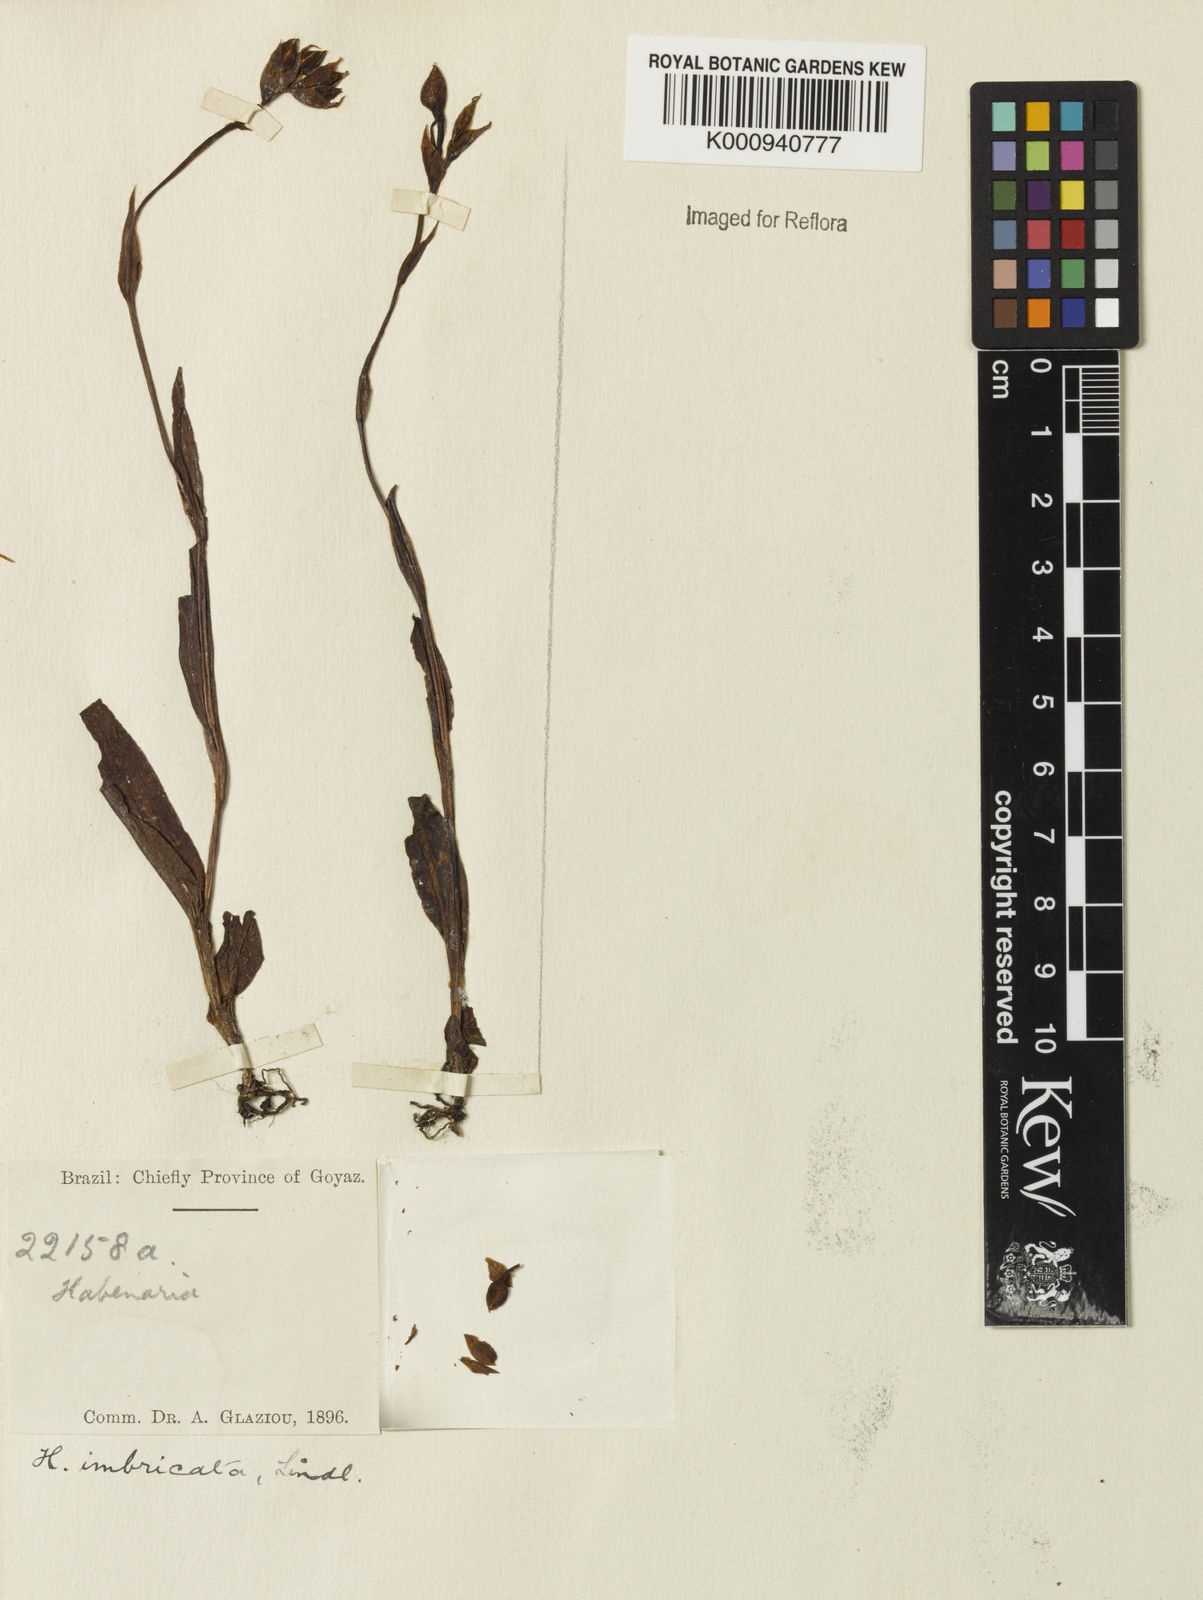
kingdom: Plantae
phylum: Tracheophyta
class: Liliopsida
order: Asparagales
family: Orchidaceae
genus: Habenaria
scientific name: Habenaria imbricata
